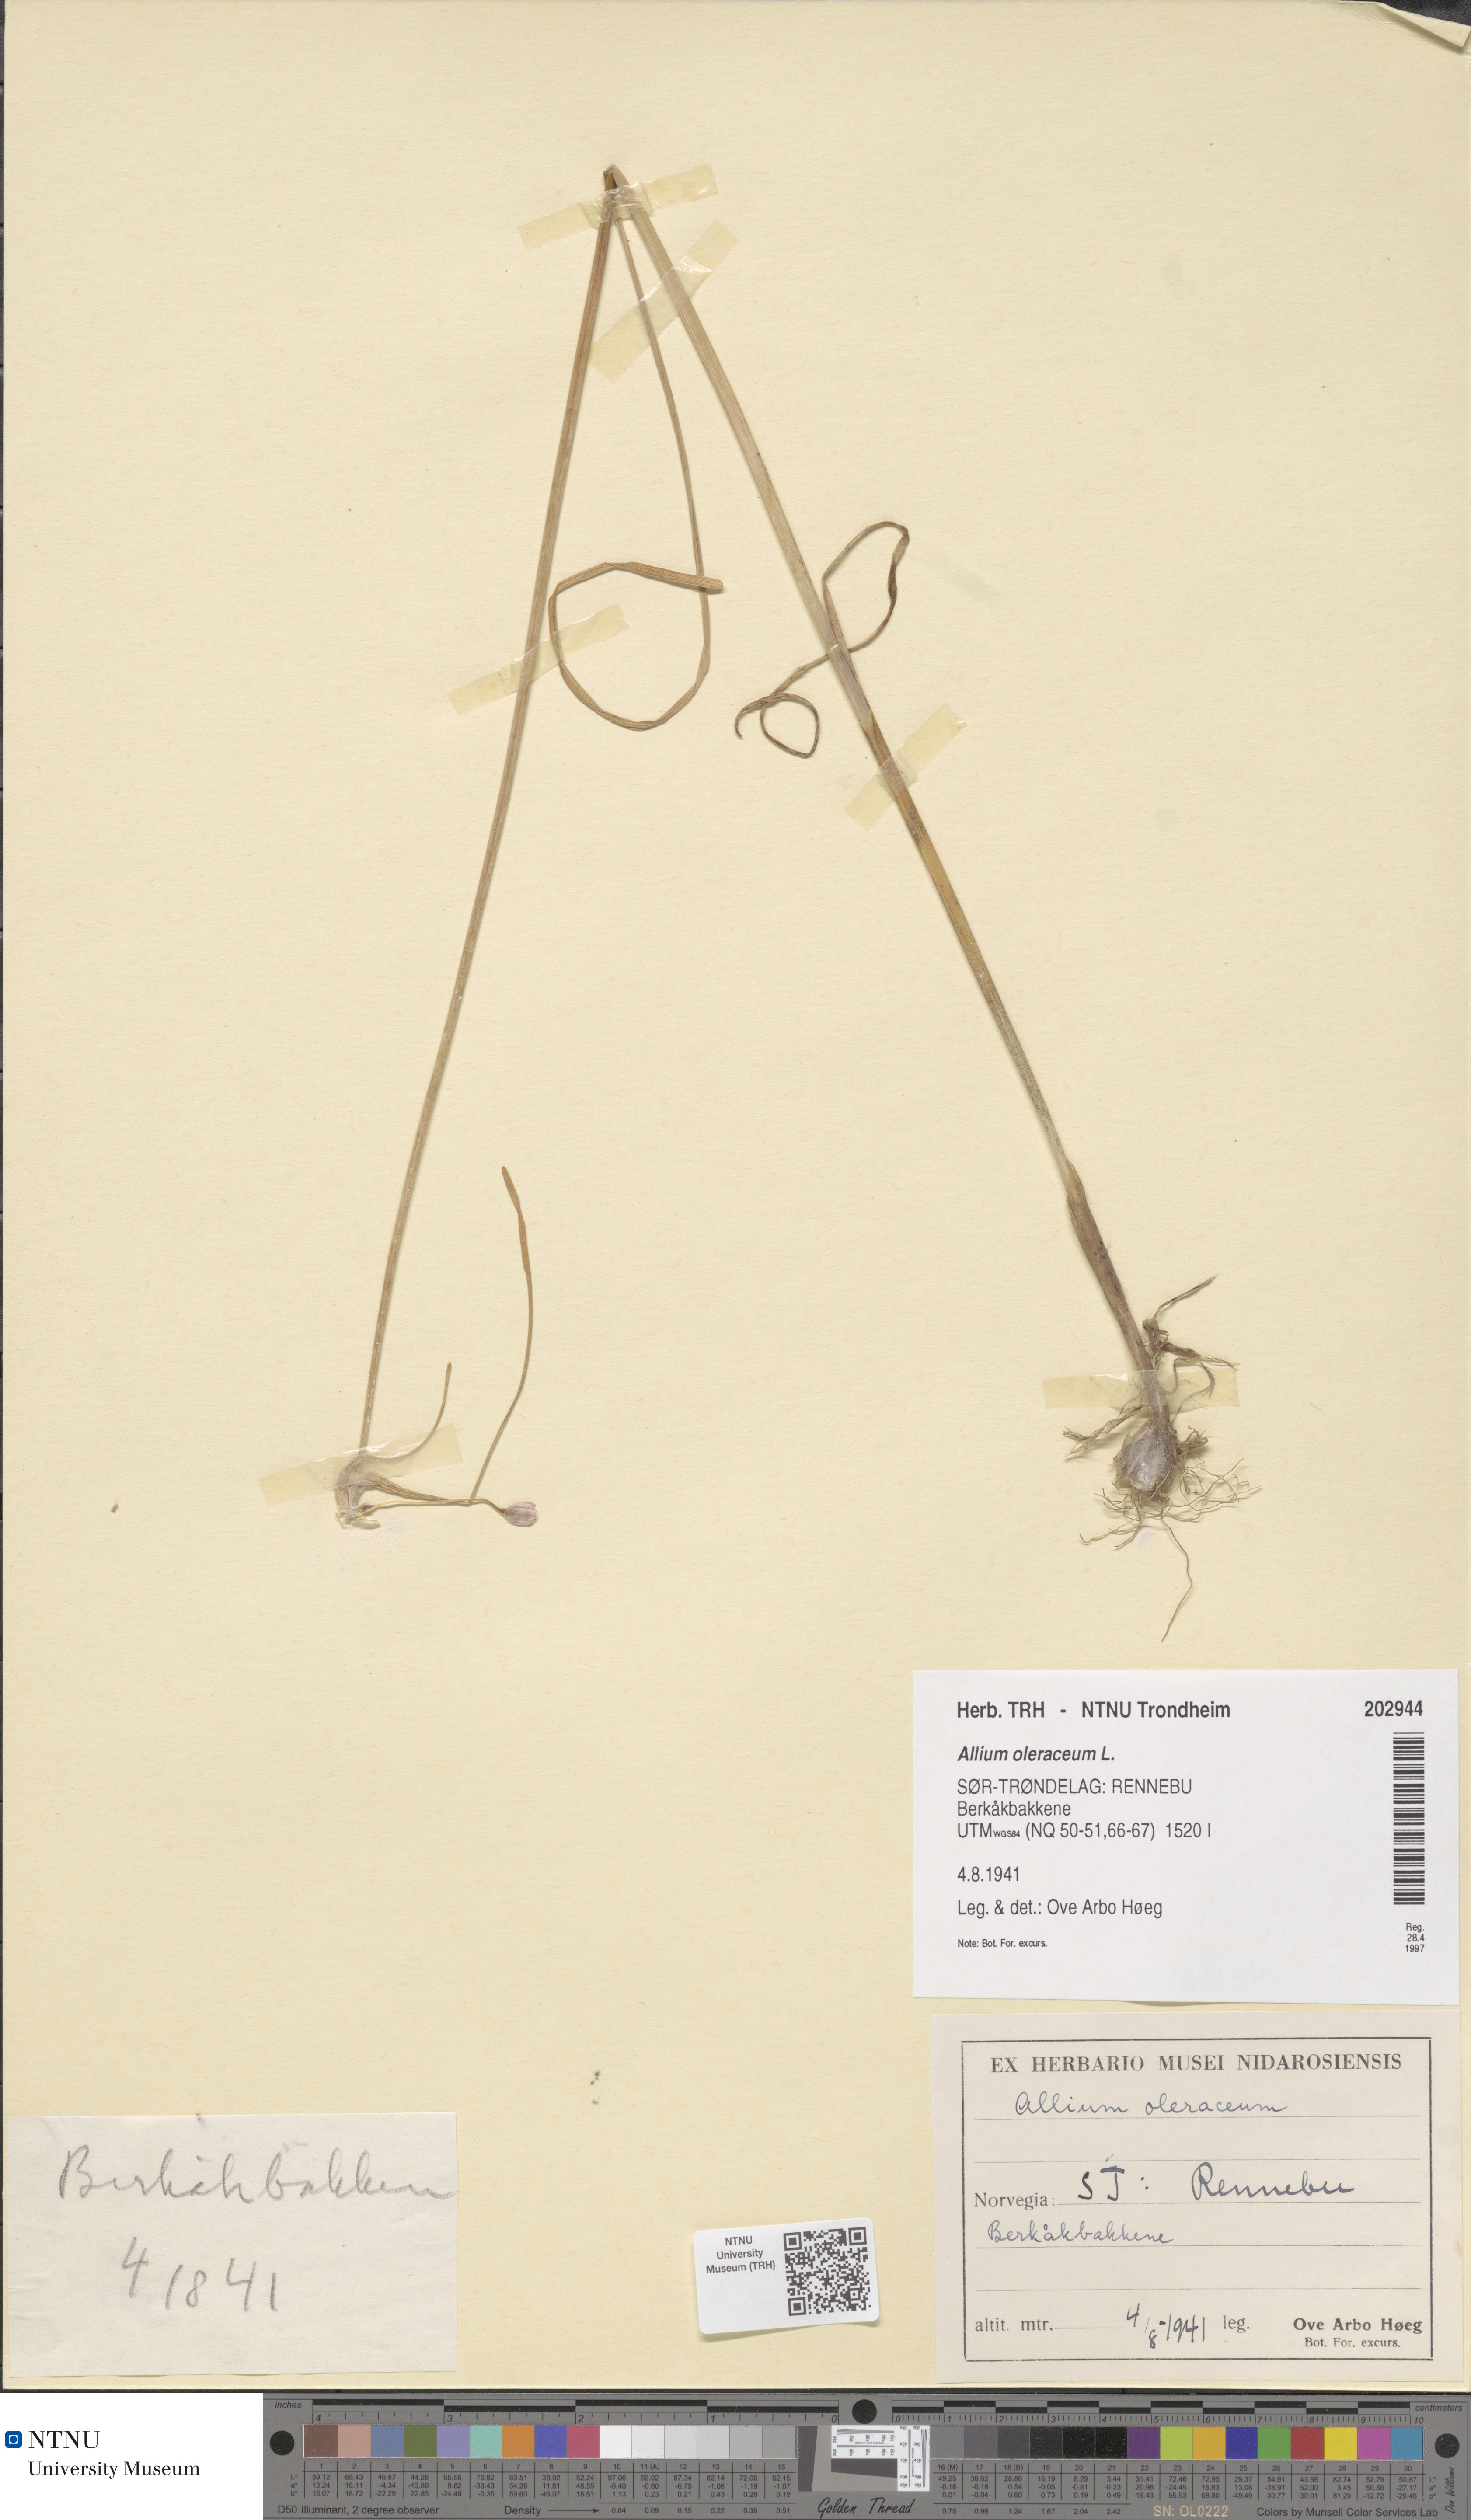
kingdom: Plantae
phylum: Tracheophyta
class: Liliopsida
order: Asparagales
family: Amaryllidaceae
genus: Allium
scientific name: Allium oleraceum
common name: Field garlic
